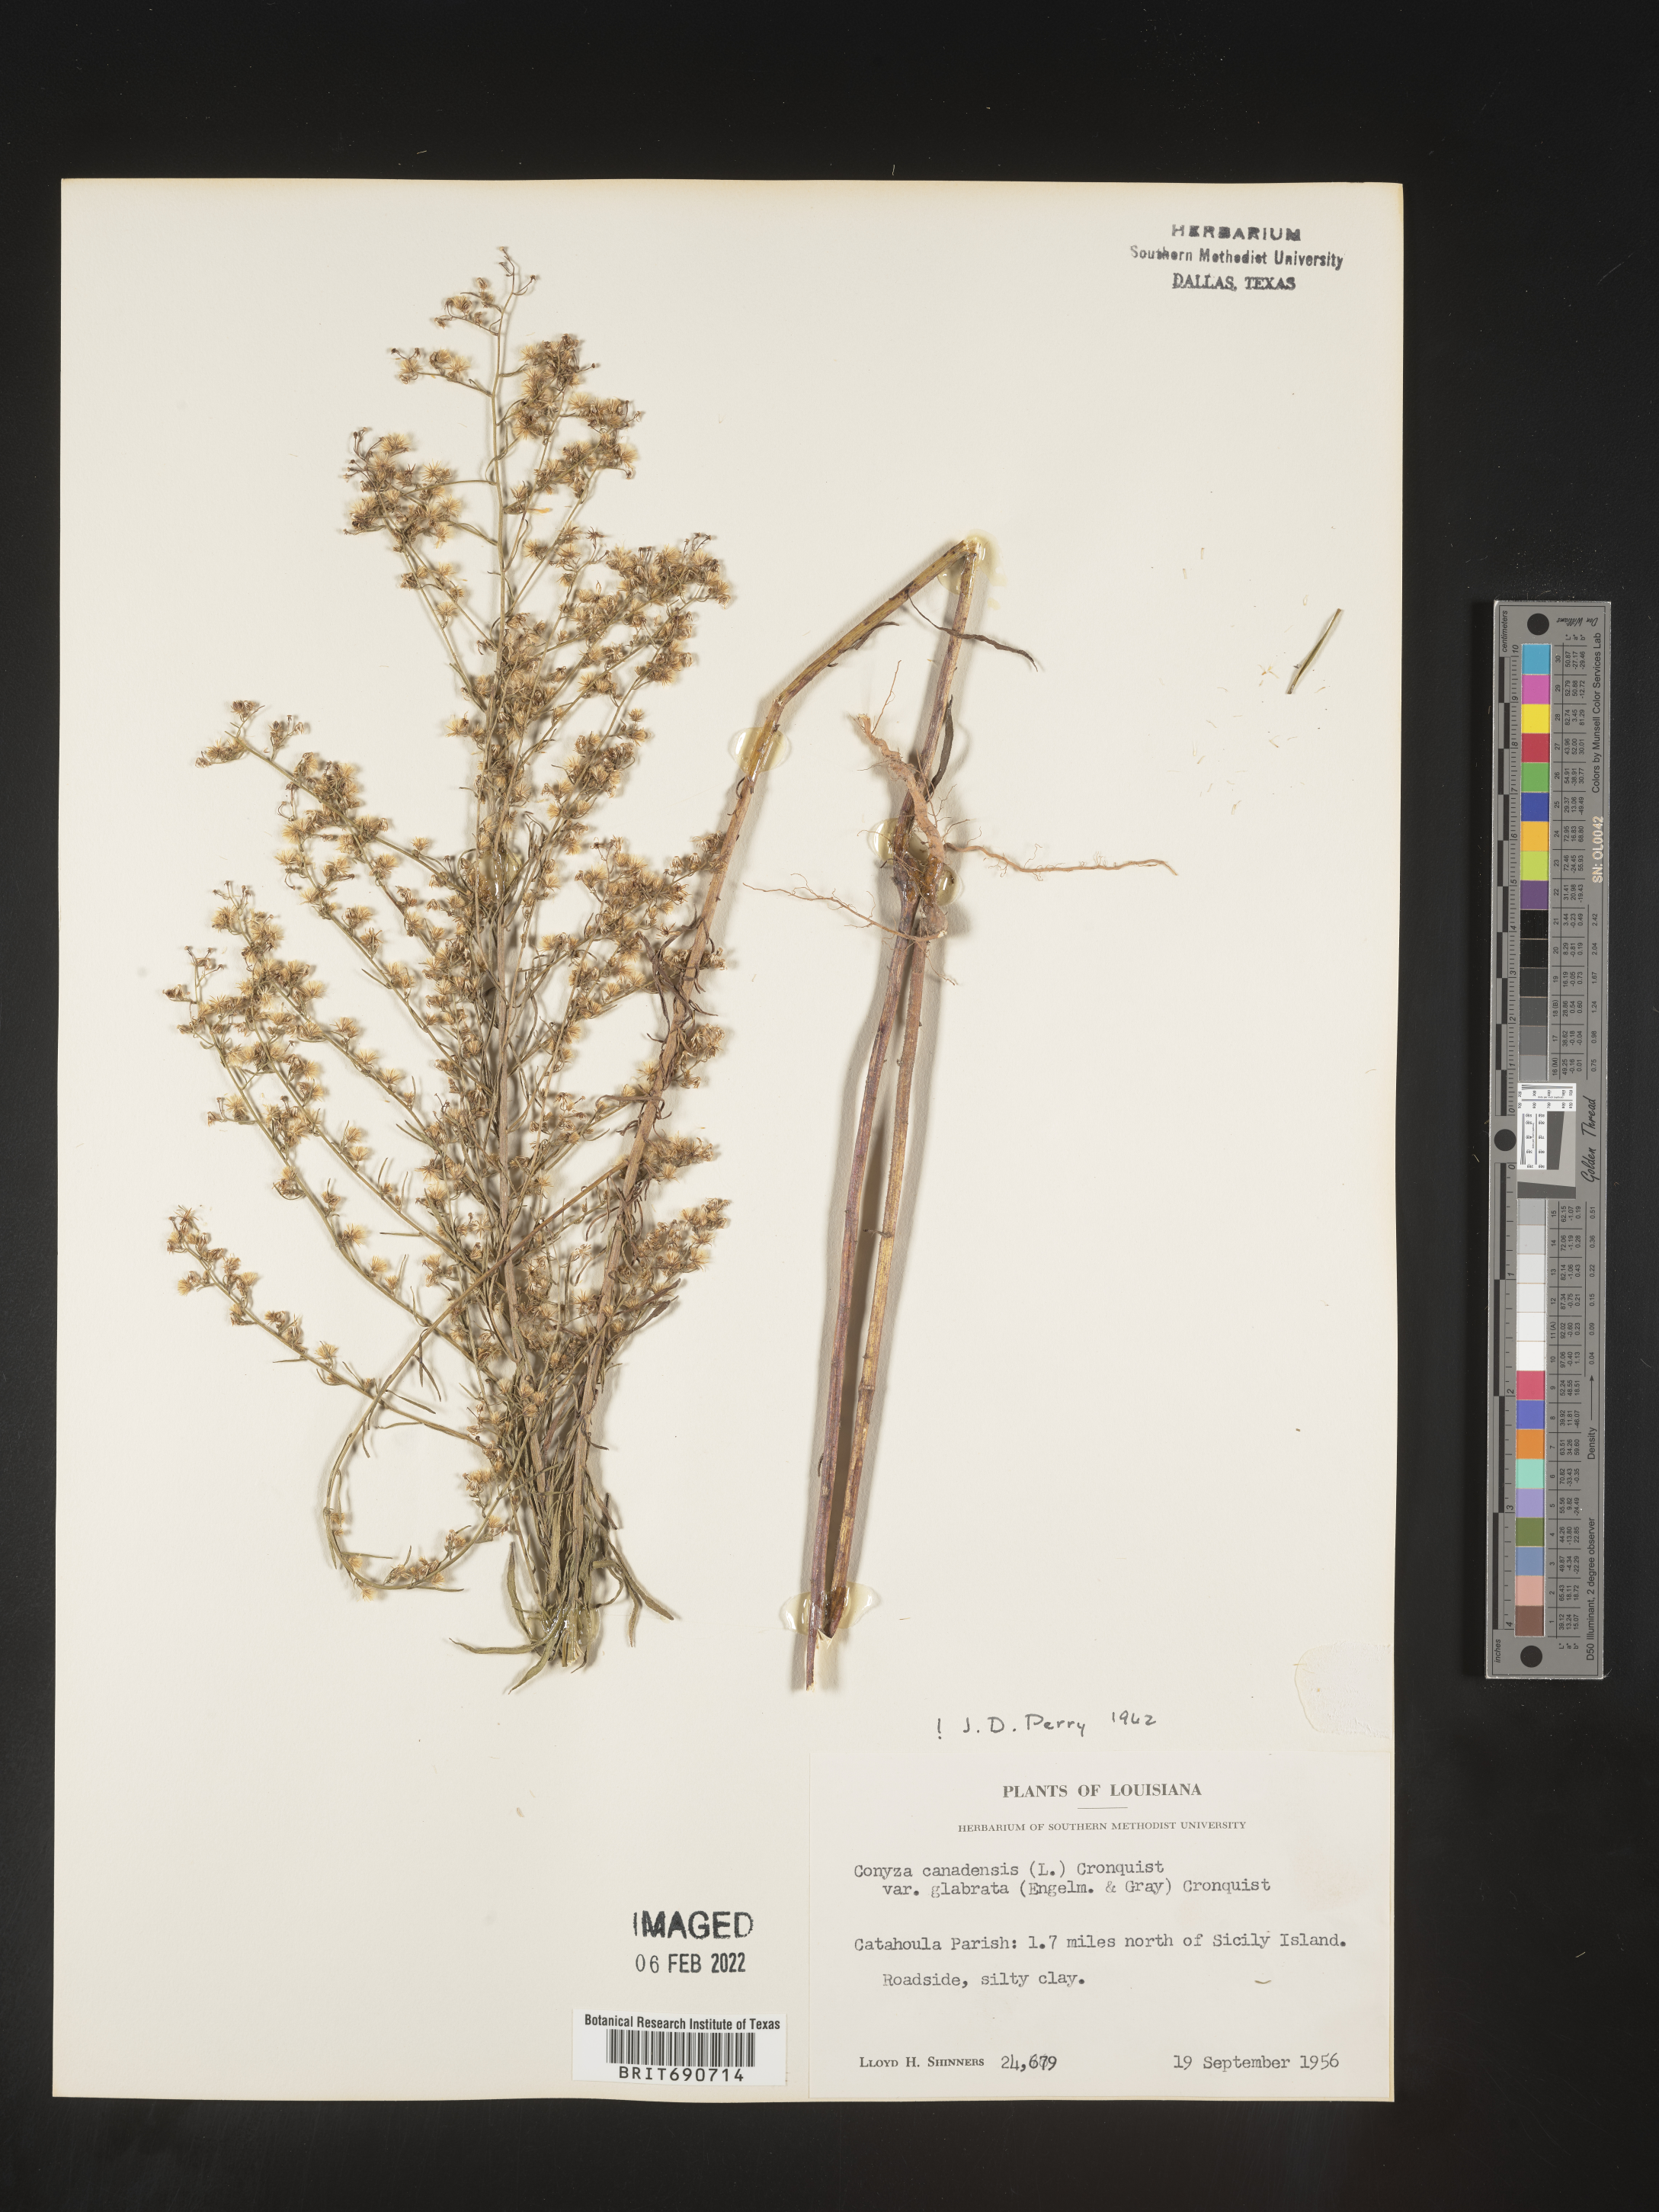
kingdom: Plantae
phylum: Tracheophyta
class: Magnoliopsida
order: Asterales
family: Asteraceae
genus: Erigeron
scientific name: Erigeron canadensis
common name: Canadian fleabane
